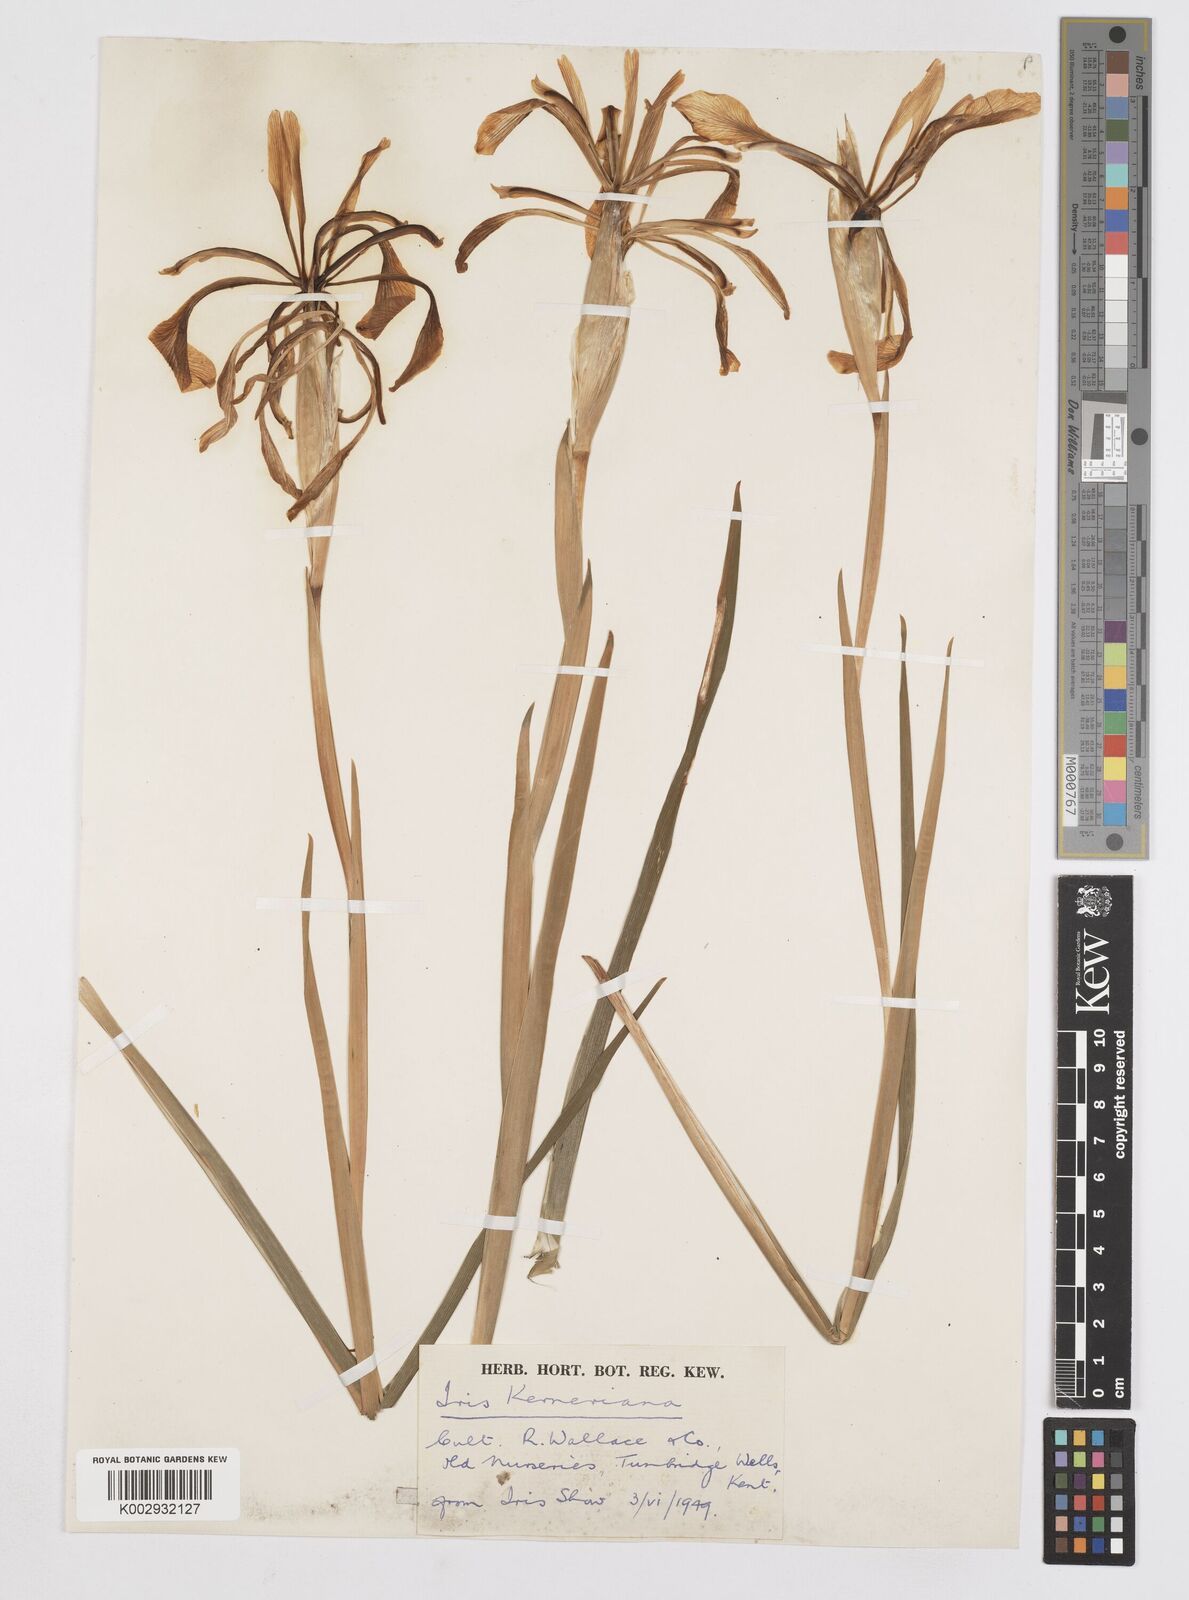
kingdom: Plantae
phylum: Tracheophyta
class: Liliopsida
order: Asparagales
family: Iridaceae
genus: Iris
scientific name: Iris haussknechtii
